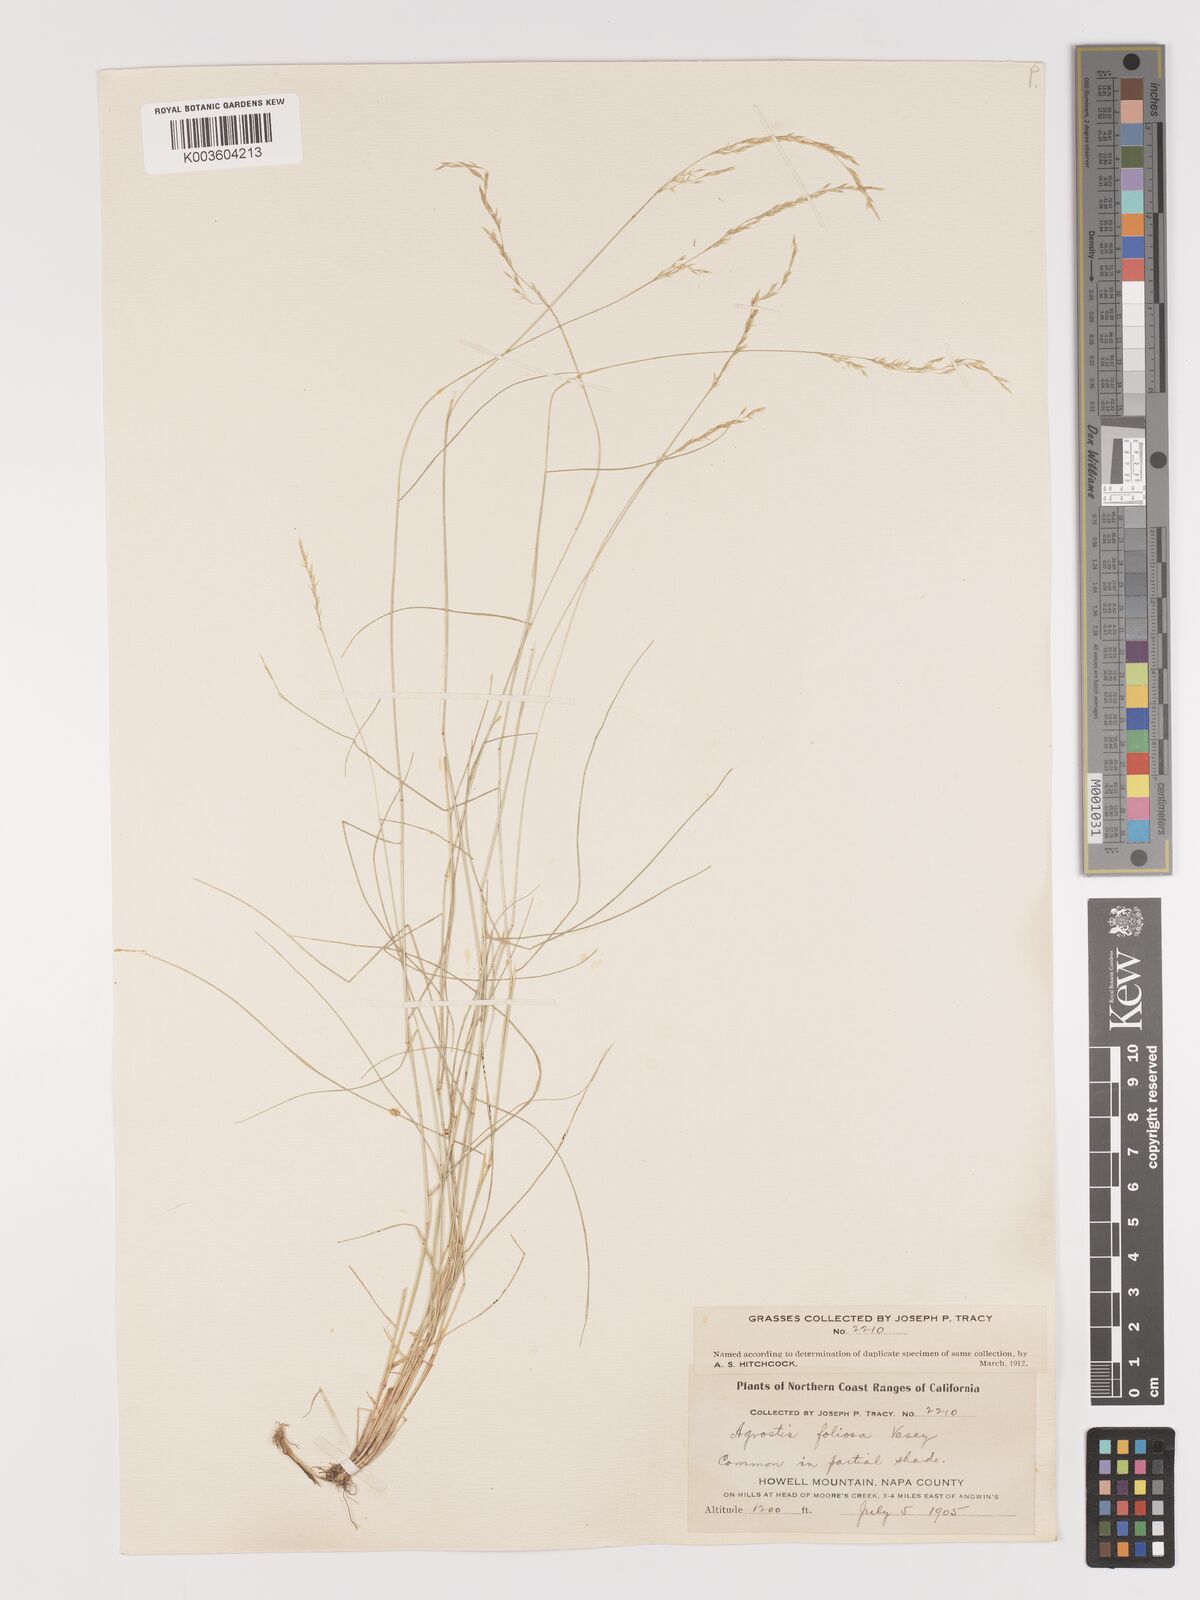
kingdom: Plantae
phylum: Tracheophyta
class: Liliopsida
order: Poales
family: Poaceae
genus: Agrostis
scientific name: Agrostis pallens
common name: Dune bent
